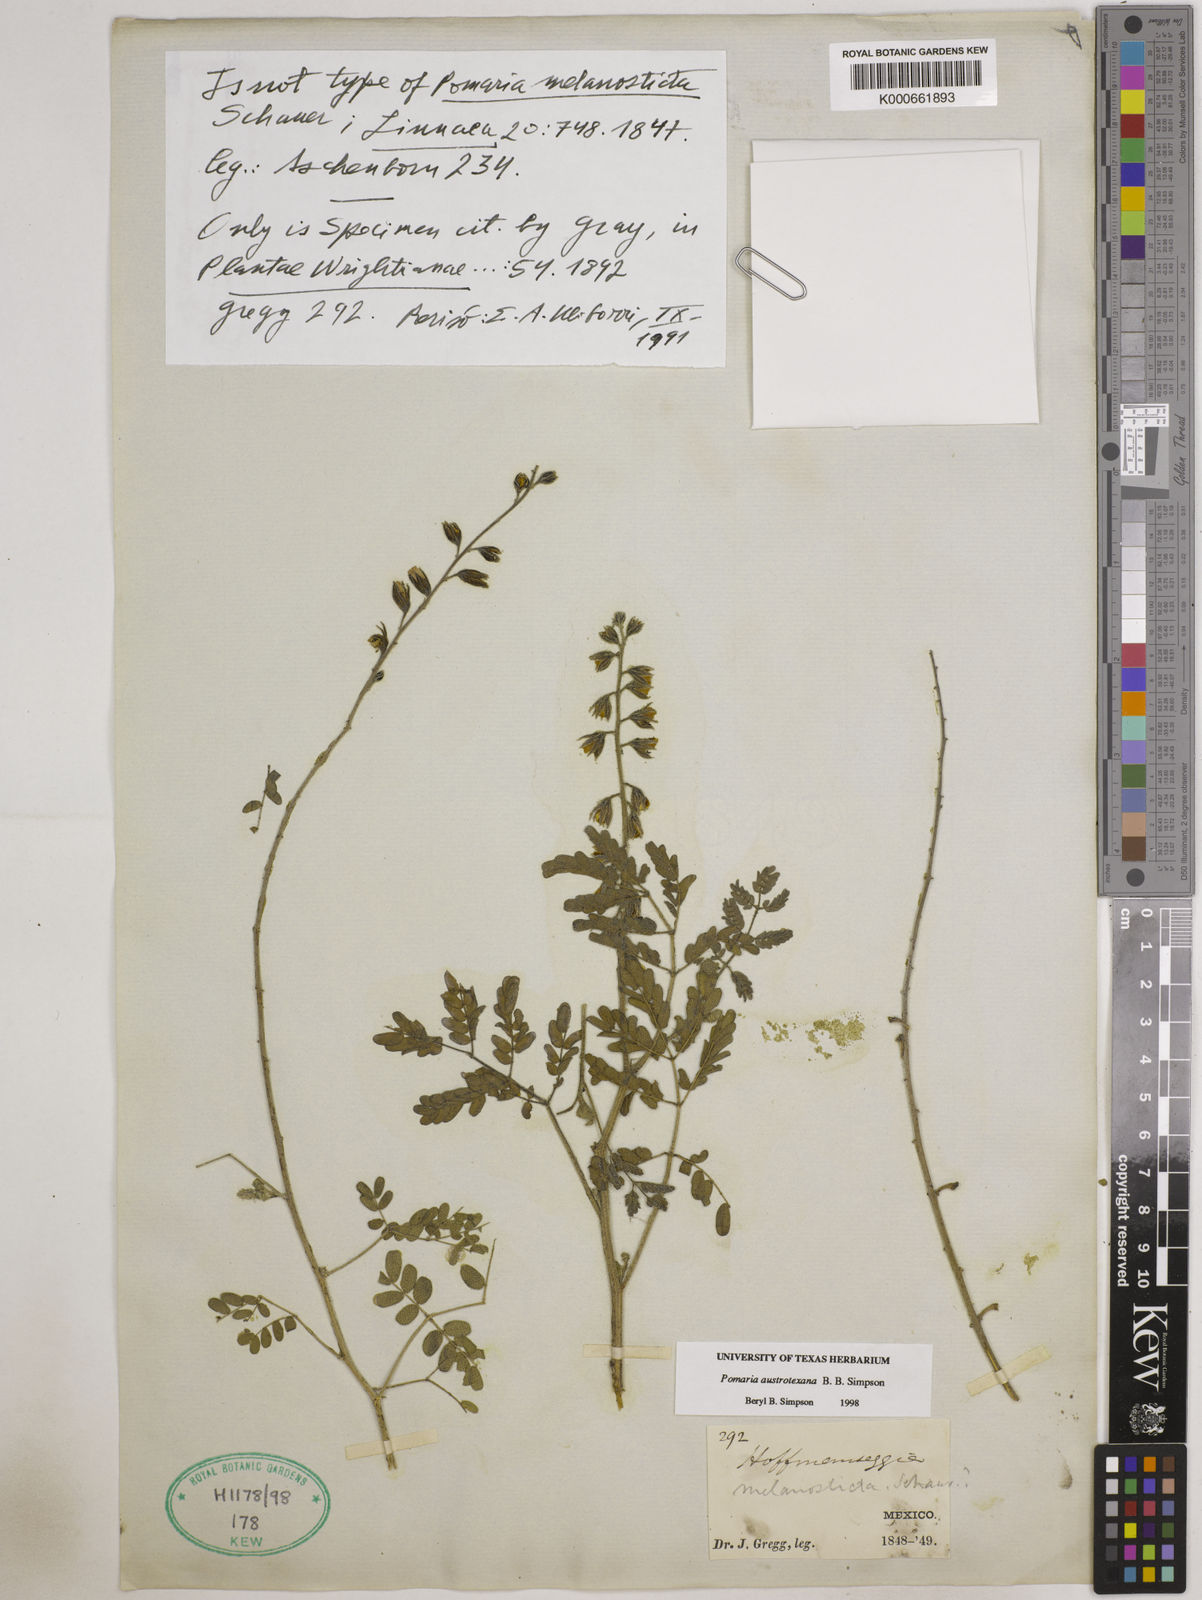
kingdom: Plantae
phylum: Tracheophyta
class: Magnoliopsida
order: Fabales
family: Fabaceae
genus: Pomaria
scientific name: Pomaria austrotexana
